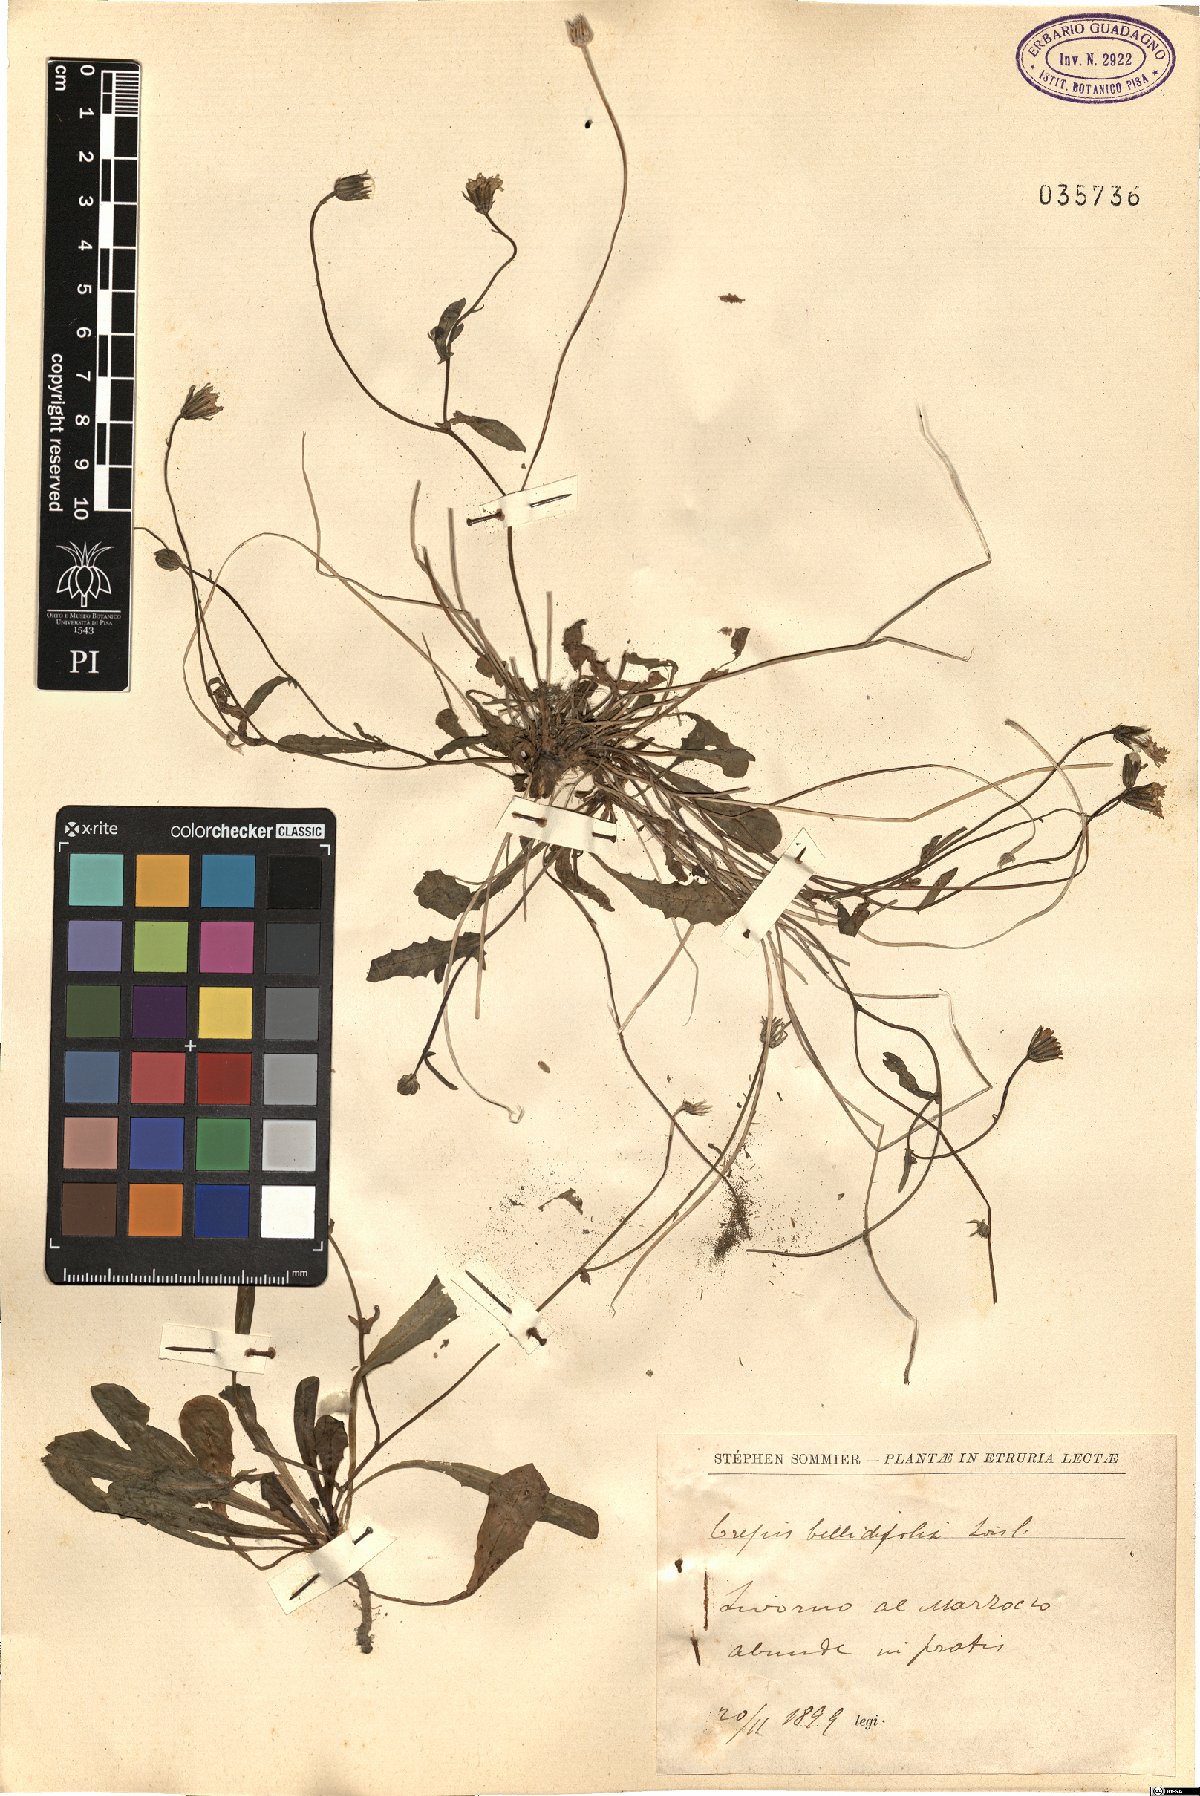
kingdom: Plantae
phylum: Tracheophyta
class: Magnoliopsida
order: Asterales
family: Asteraceae
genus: Crepis
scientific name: Crepis bellidifolia
